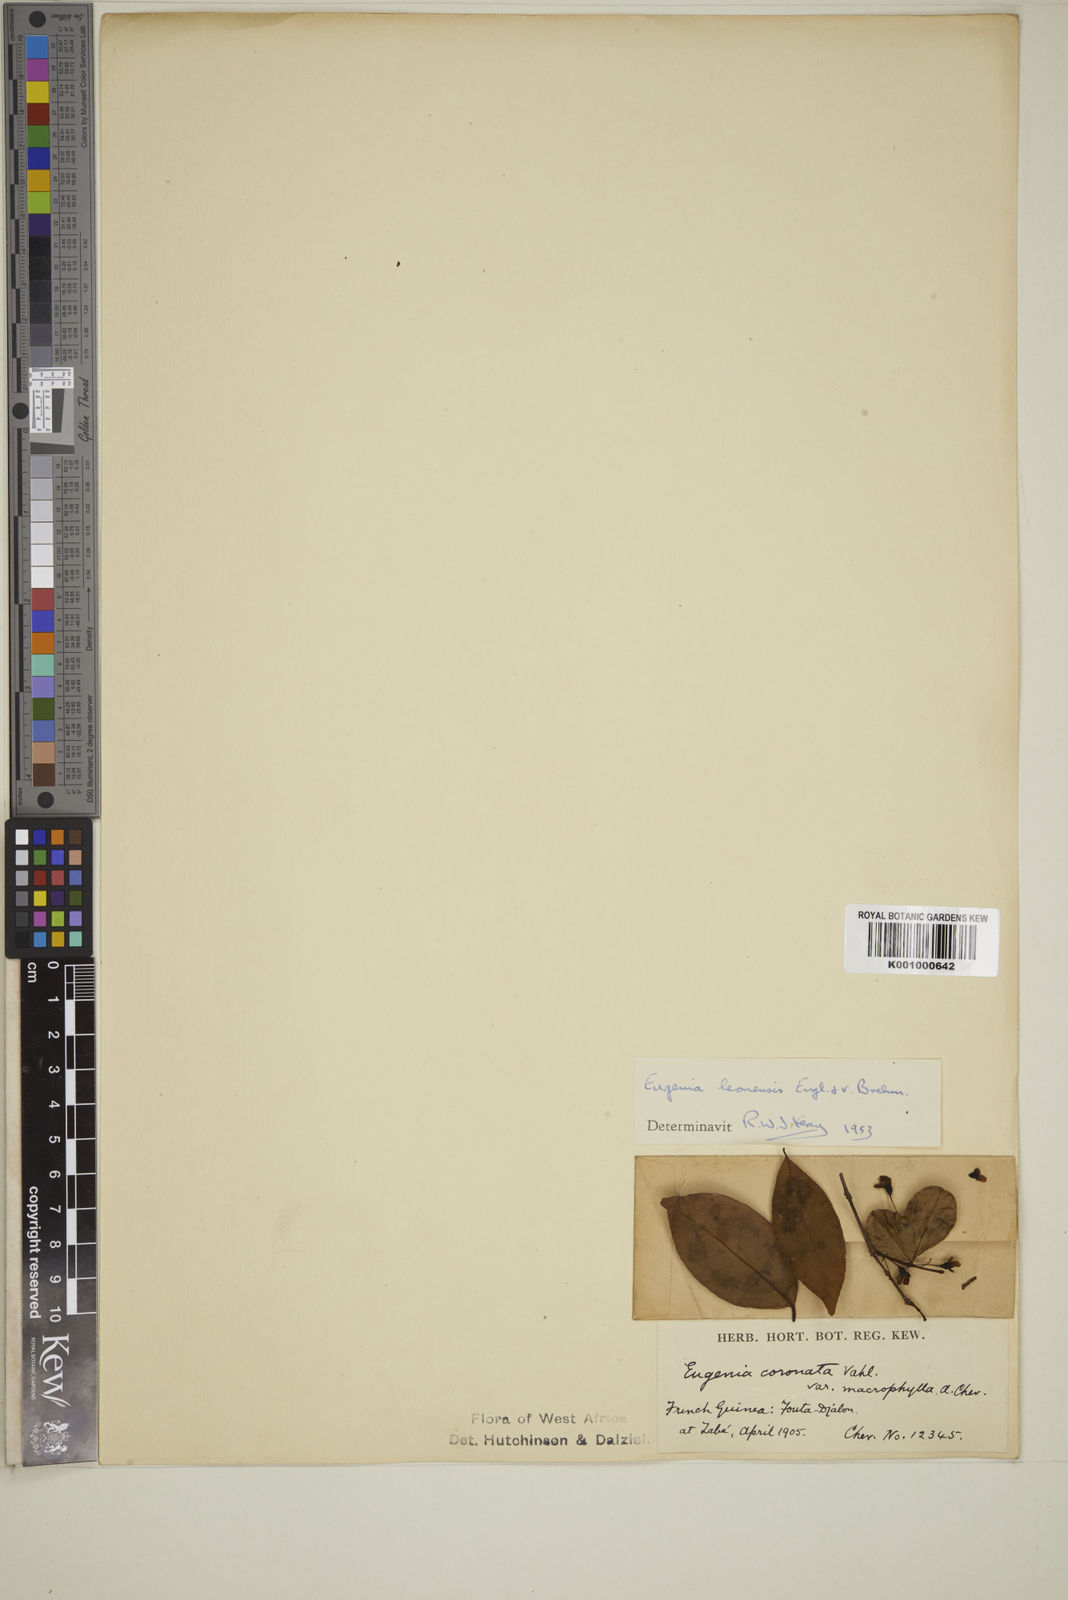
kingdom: Plantae
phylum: Tracheophyta
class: Magnoliopsida
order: Myrtales
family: Myrtaceae
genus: Eugenia
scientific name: Eugenia leonensis
